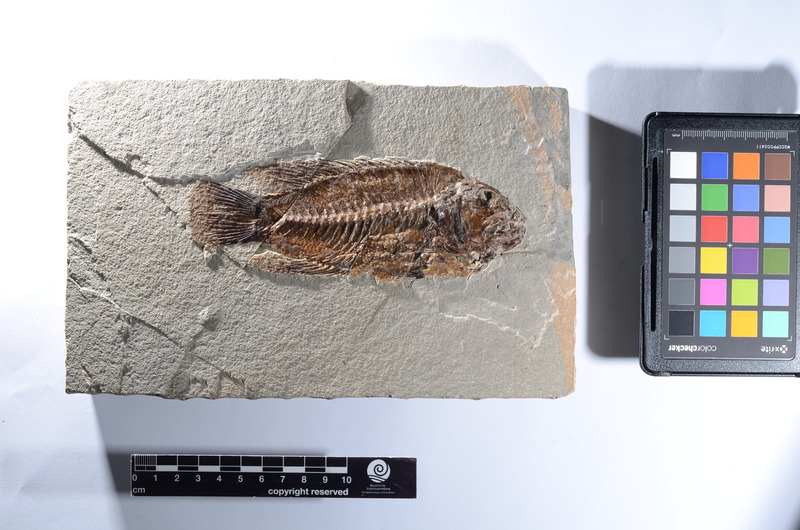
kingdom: Animalia
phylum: Chordata
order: Perciformes
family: Latidae
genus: Lates
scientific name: Lates gracilis
